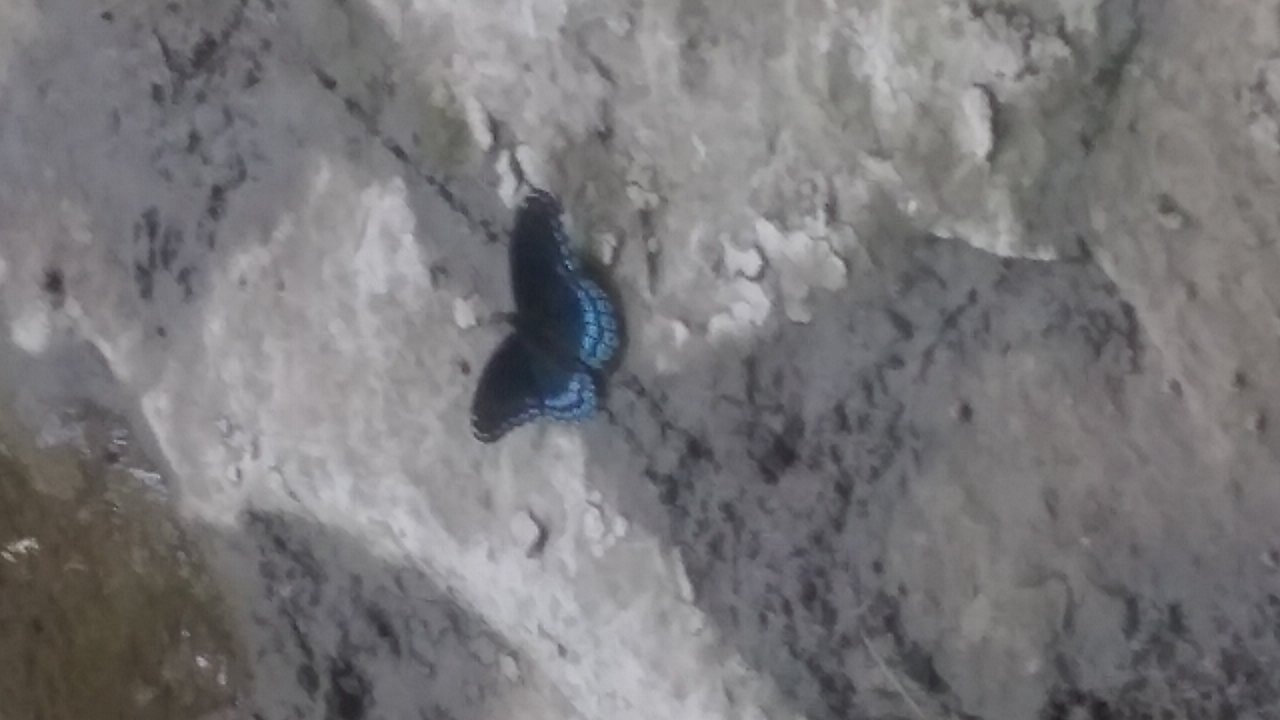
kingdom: Animalia
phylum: Arthropoda
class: Insecta
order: Lepidoptera
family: Nymphalidae
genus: Limenitis
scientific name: Limenitis astyanax
